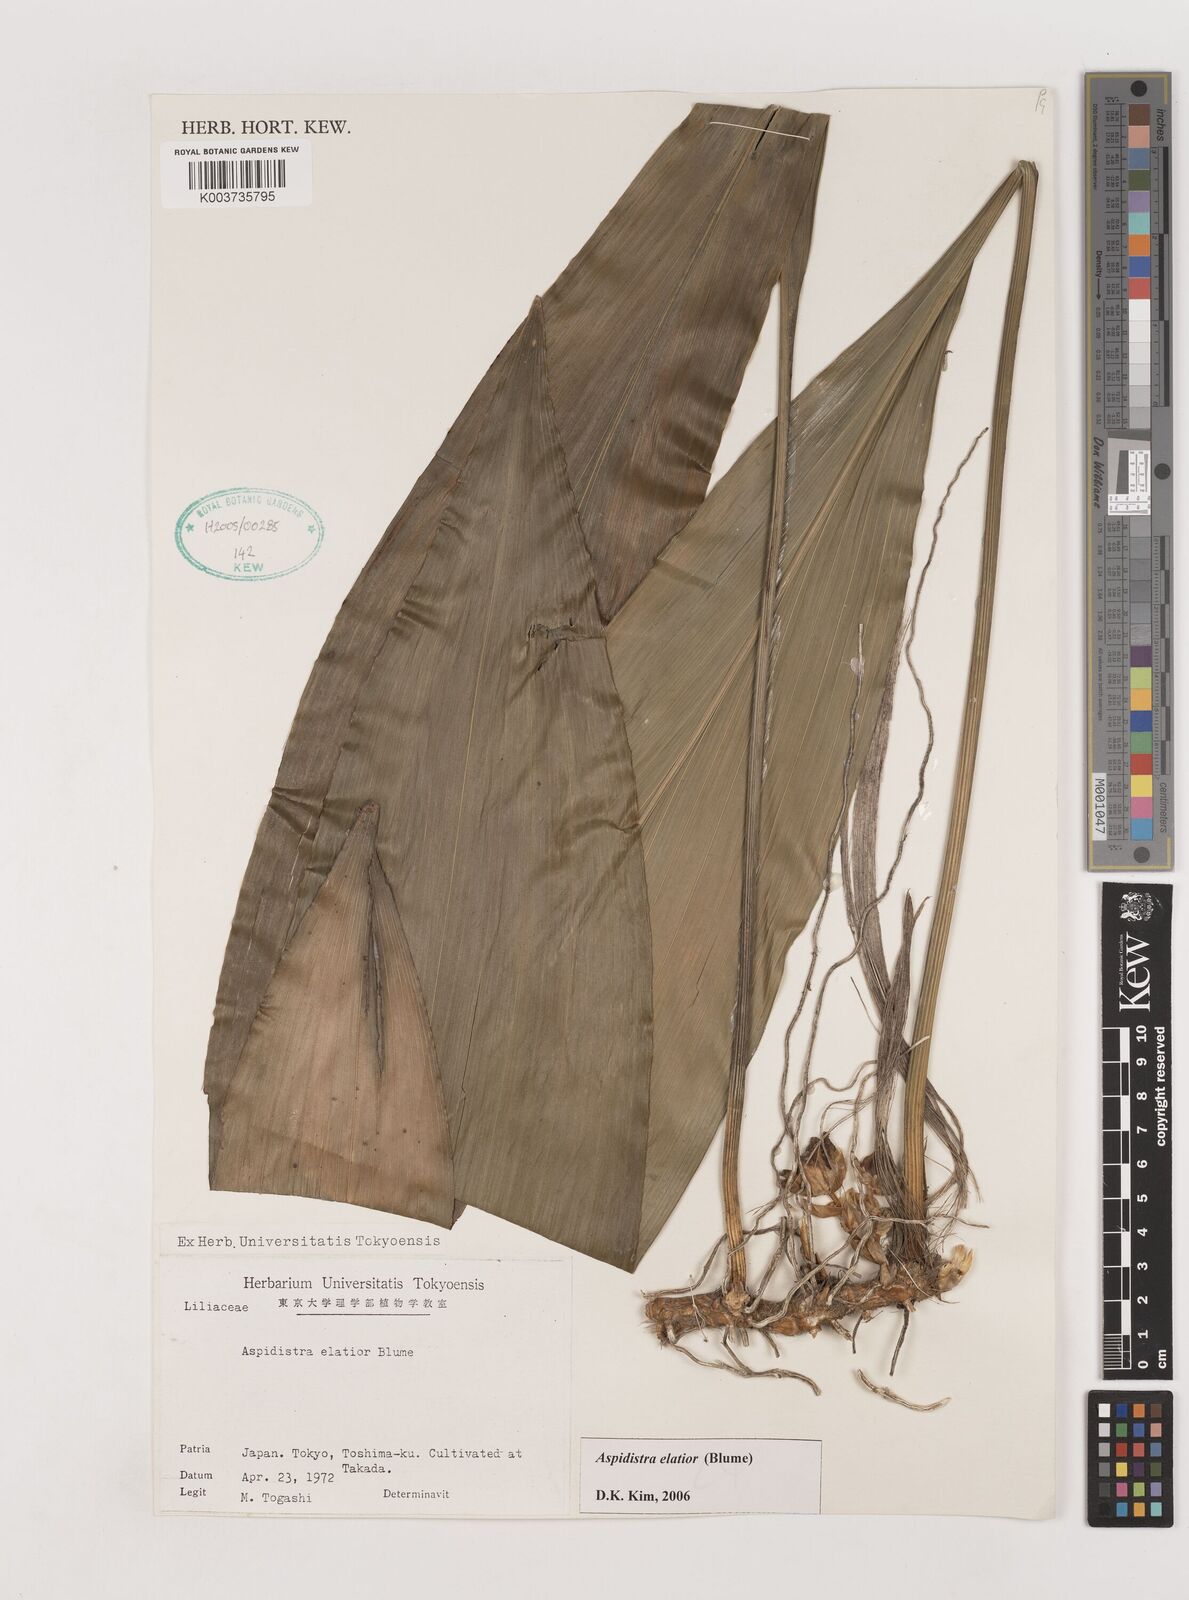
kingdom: Plantae
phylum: Tracheophyta
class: Liliopsida
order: Asparagales
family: Asparagaceae
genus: Aspidistra
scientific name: Aspidistra elatior
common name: Cast-iron-plant
